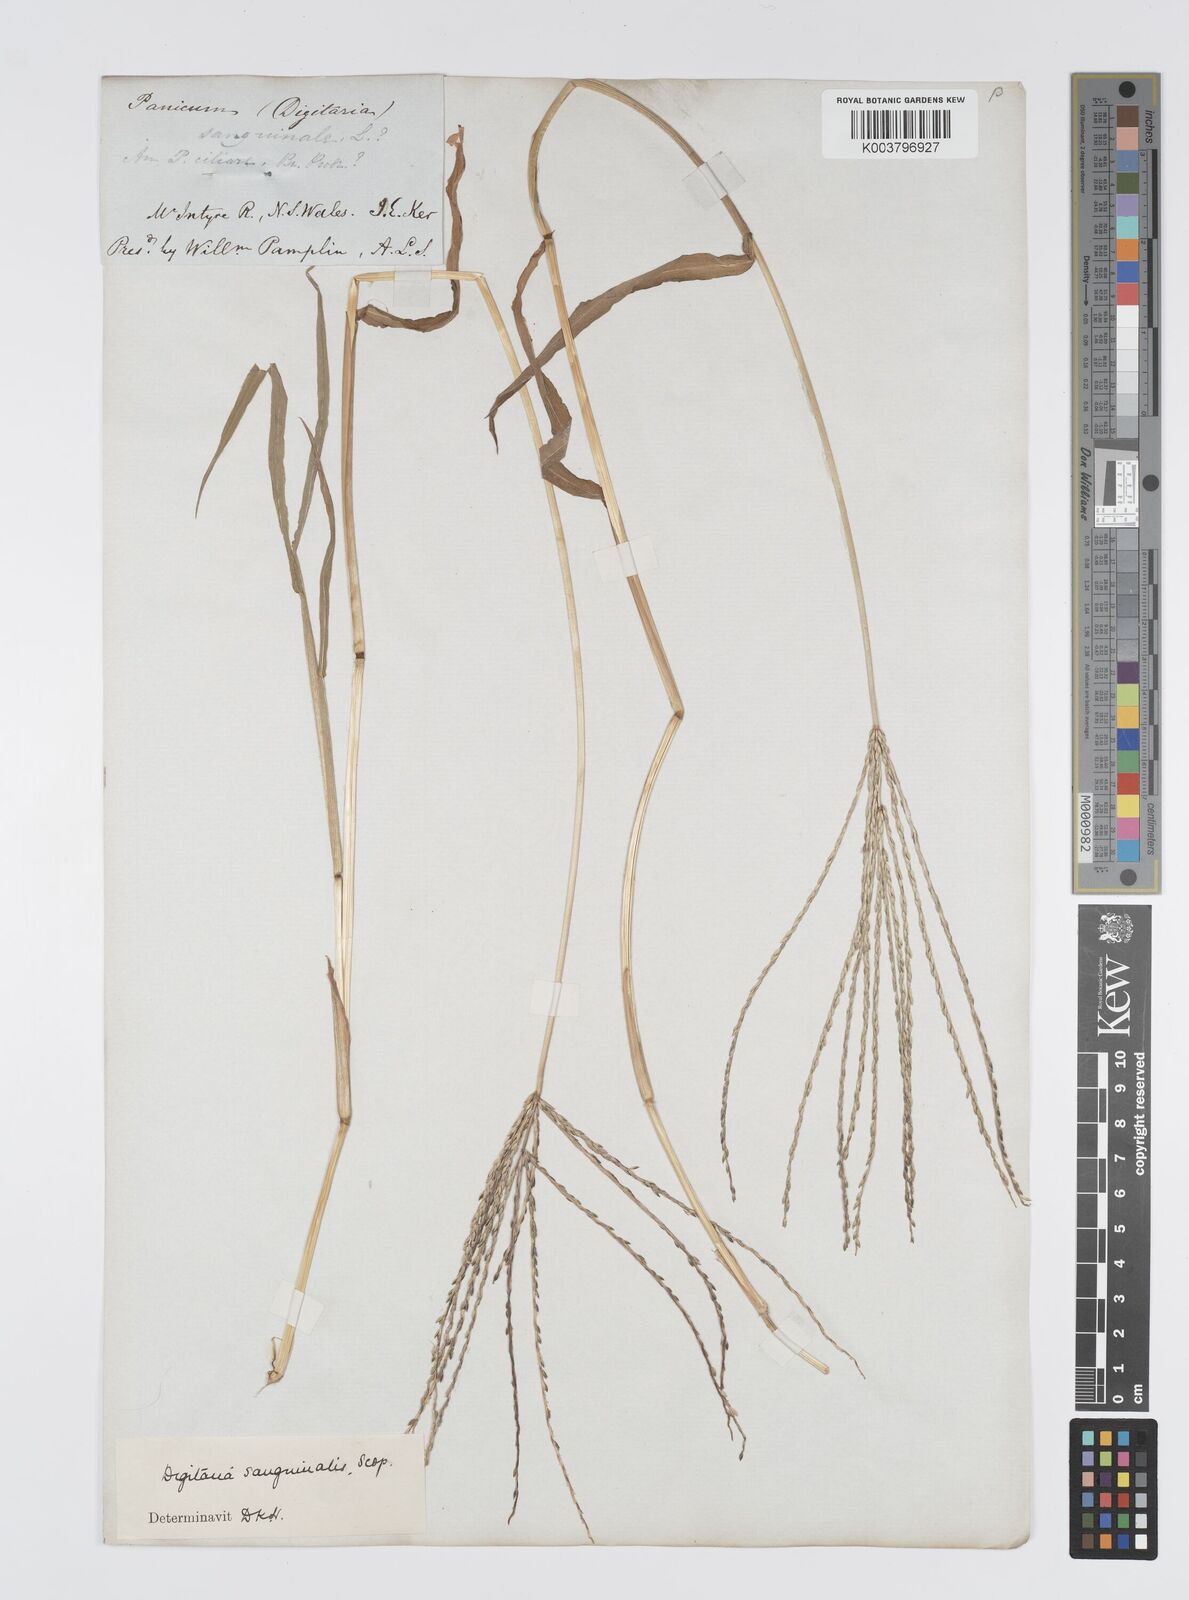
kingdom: Plantae
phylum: Tracheophyta
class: Liliopsida
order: Poales
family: Poaceae
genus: Digitaria
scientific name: Digitaria sanguinalis
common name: Hairy crabgrass
